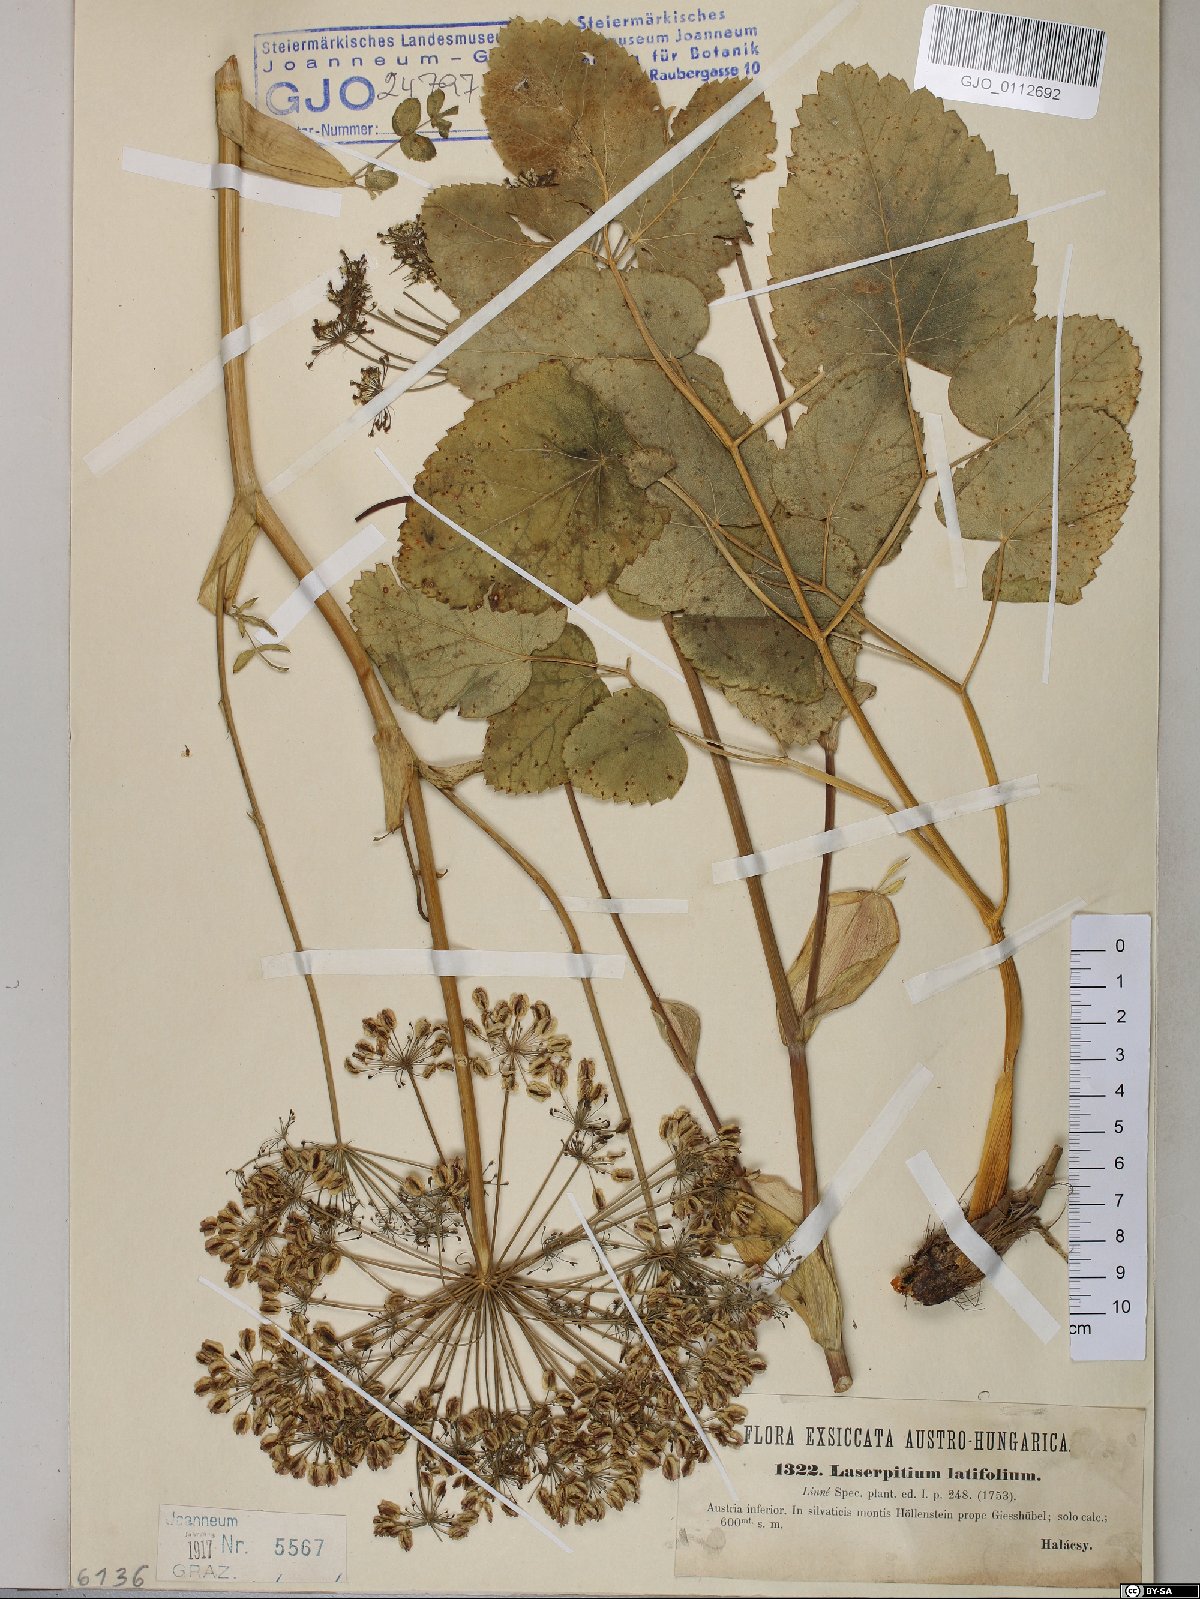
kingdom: Plantae
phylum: Tracheophyta
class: Magnoliopsida
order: Apiales
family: Apiaceae
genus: Laserpitium
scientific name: Laserpitium latifolium
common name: Broadleaf sermountain
